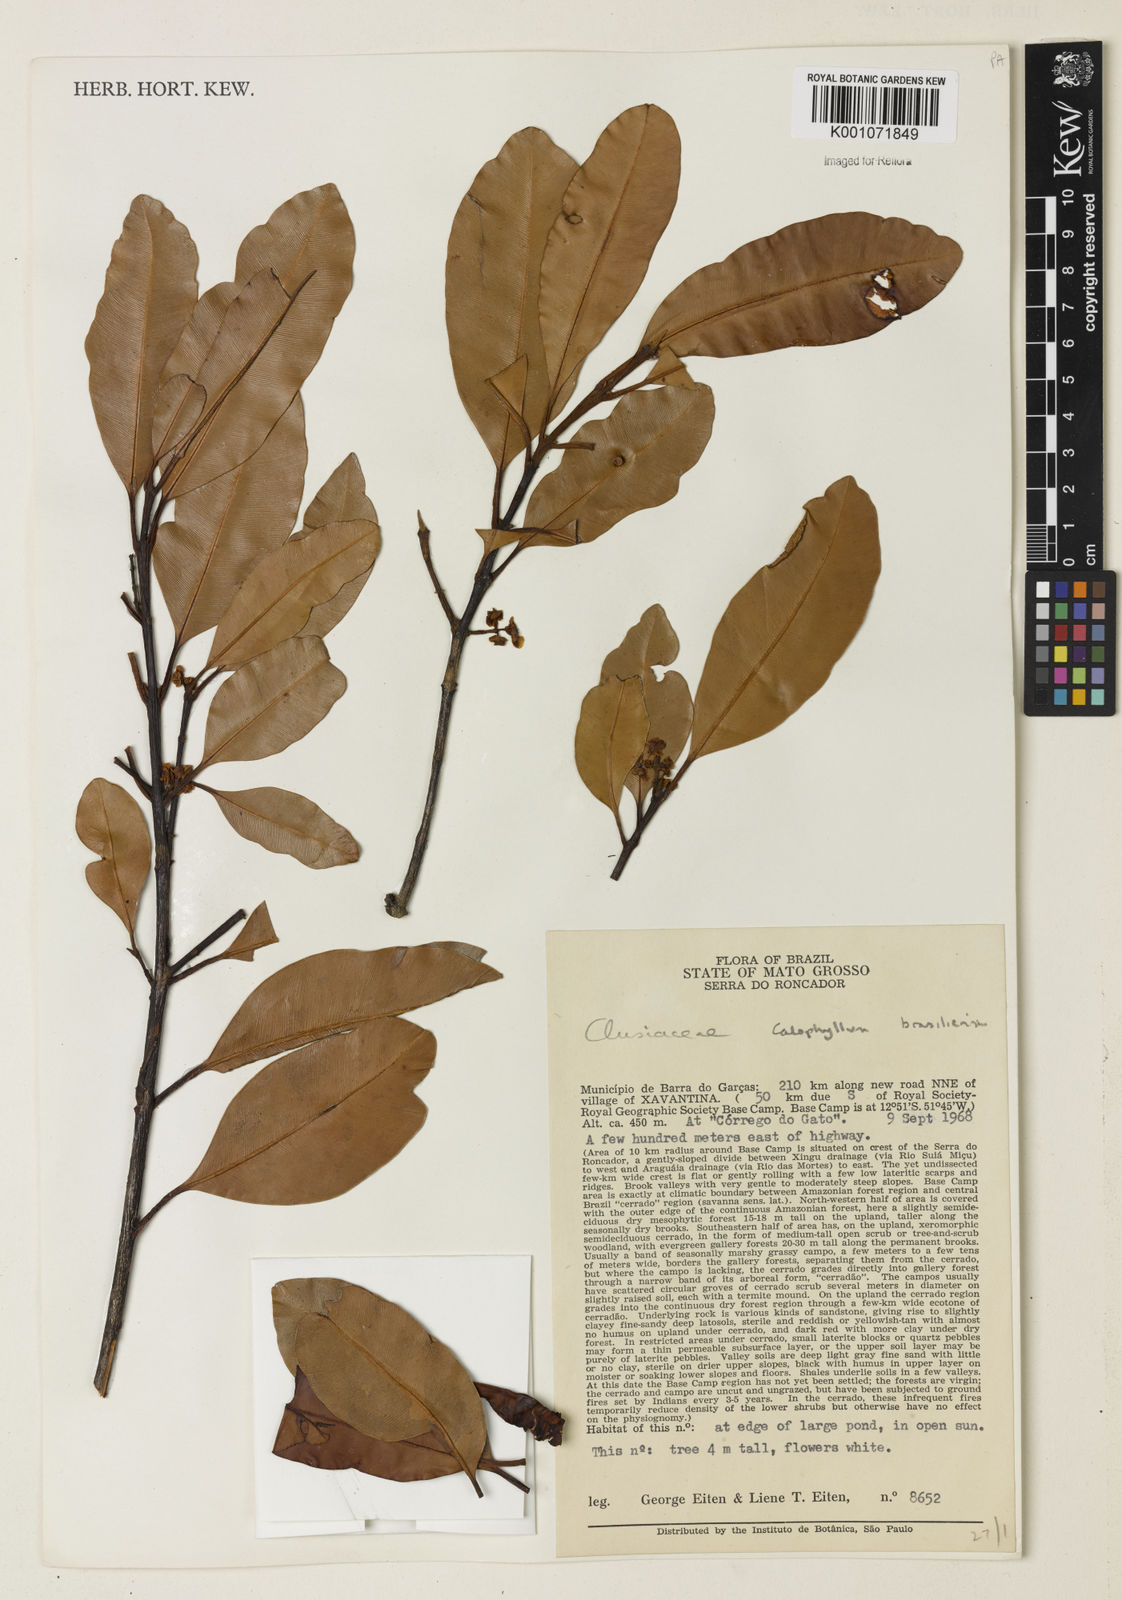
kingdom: Plantae
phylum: Tracheophyta
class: Magnoliopsida
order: Malpighiales
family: Calophyllaceae
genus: Calophyllum
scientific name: Calophyllum brasiliense
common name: Santa maria
